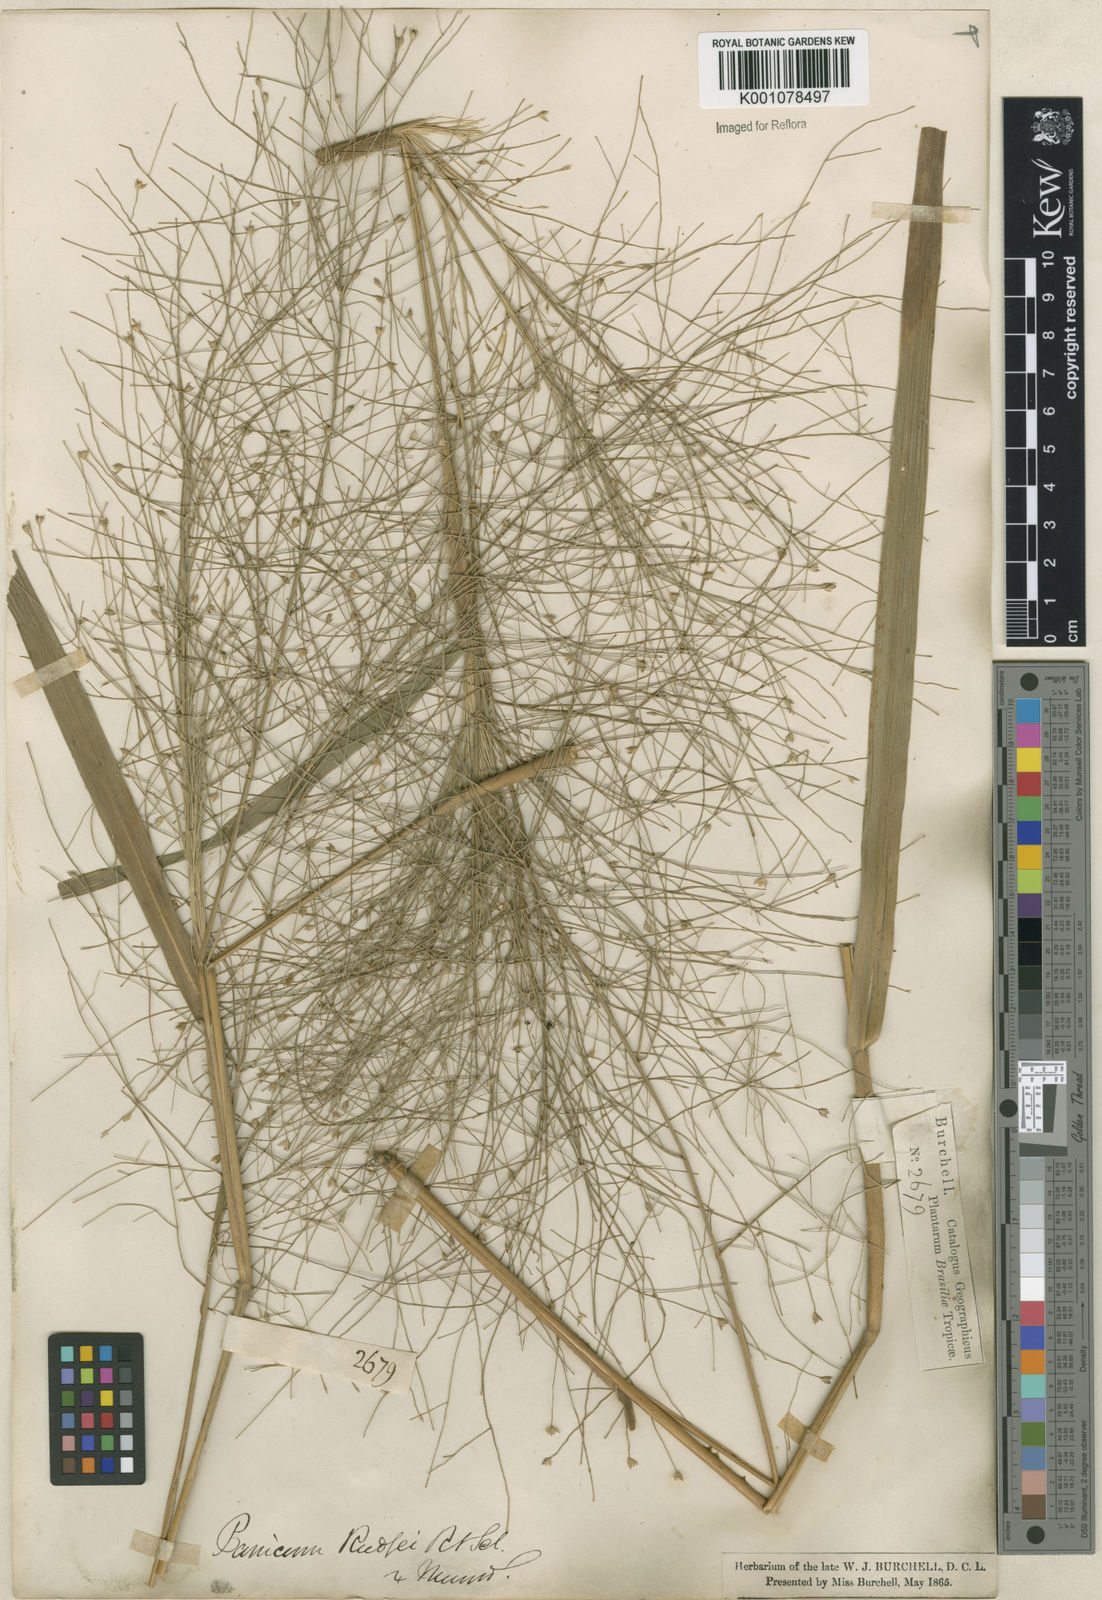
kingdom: Plantae
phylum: Tracheophyta
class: Liliopsida
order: Poales
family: Poaceae
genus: Panicum
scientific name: Panicum rudgei
